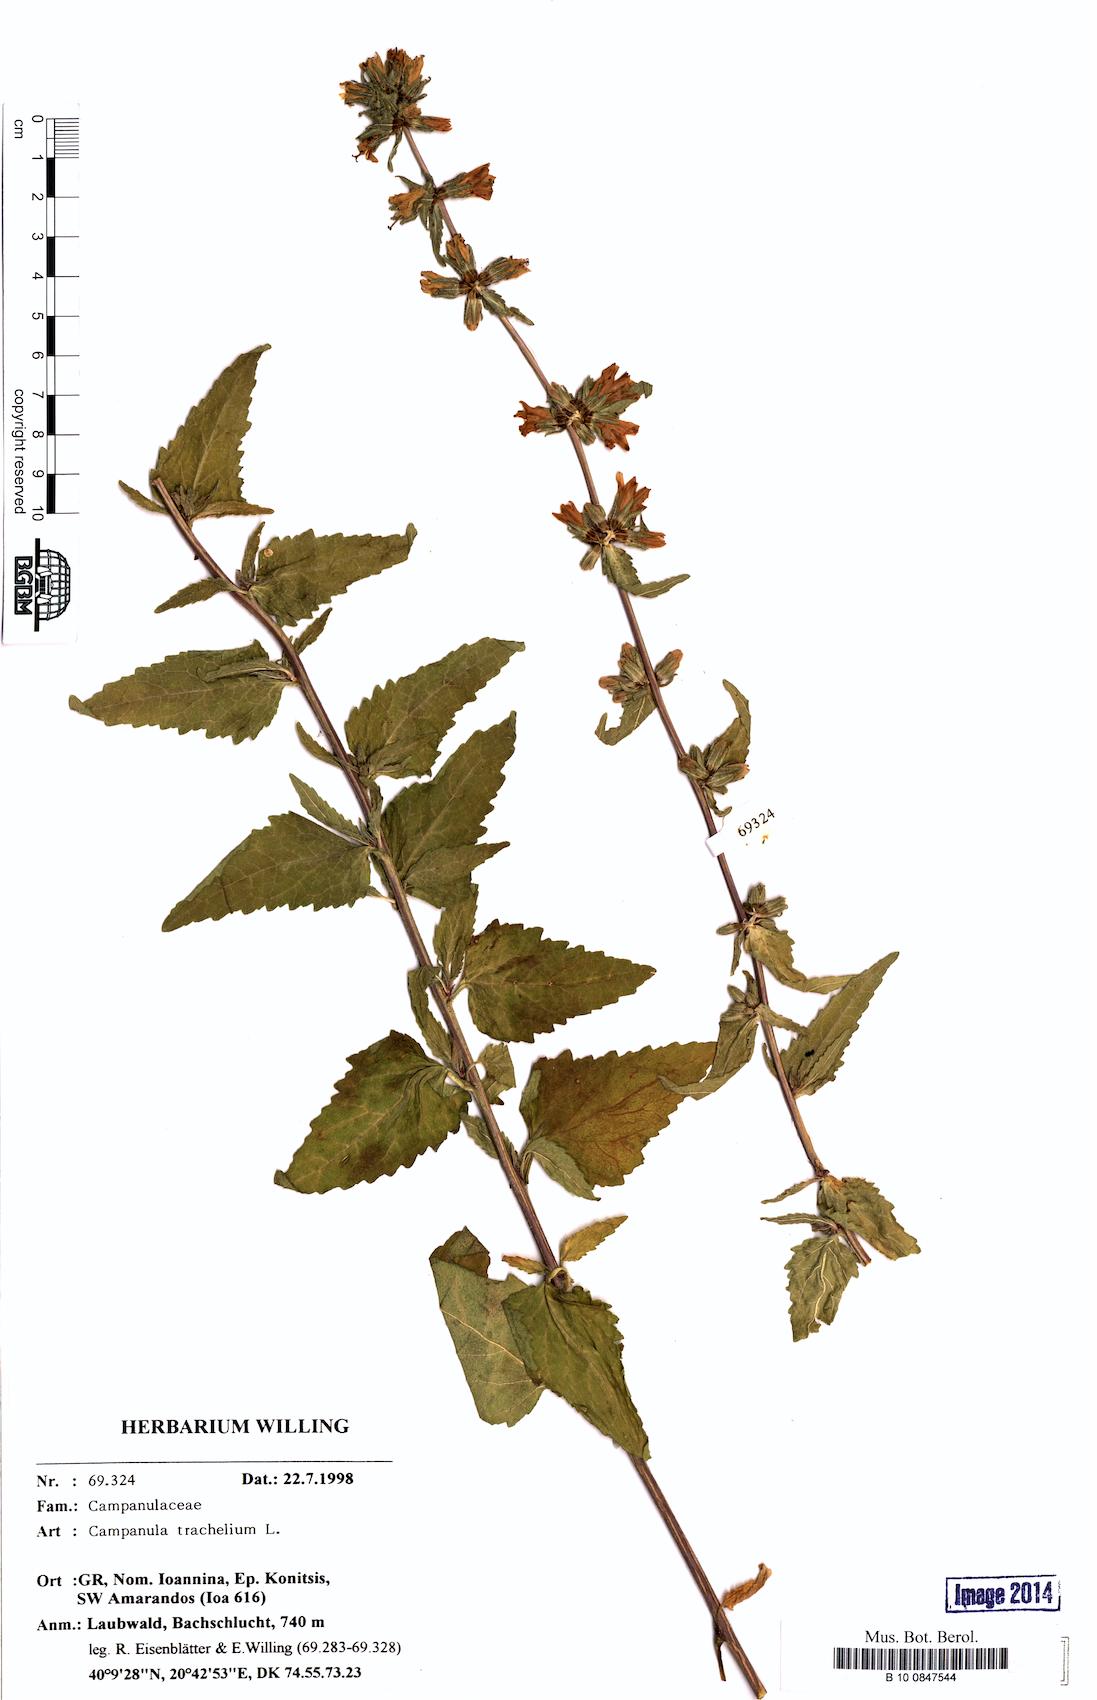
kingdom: Plantae
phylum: Tracheophyta
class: Magnoliopsida
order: Asterales
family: Campanulaceae
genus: Campanula
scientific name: Campanula trachelium
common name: Nettle-leaved bellflower
